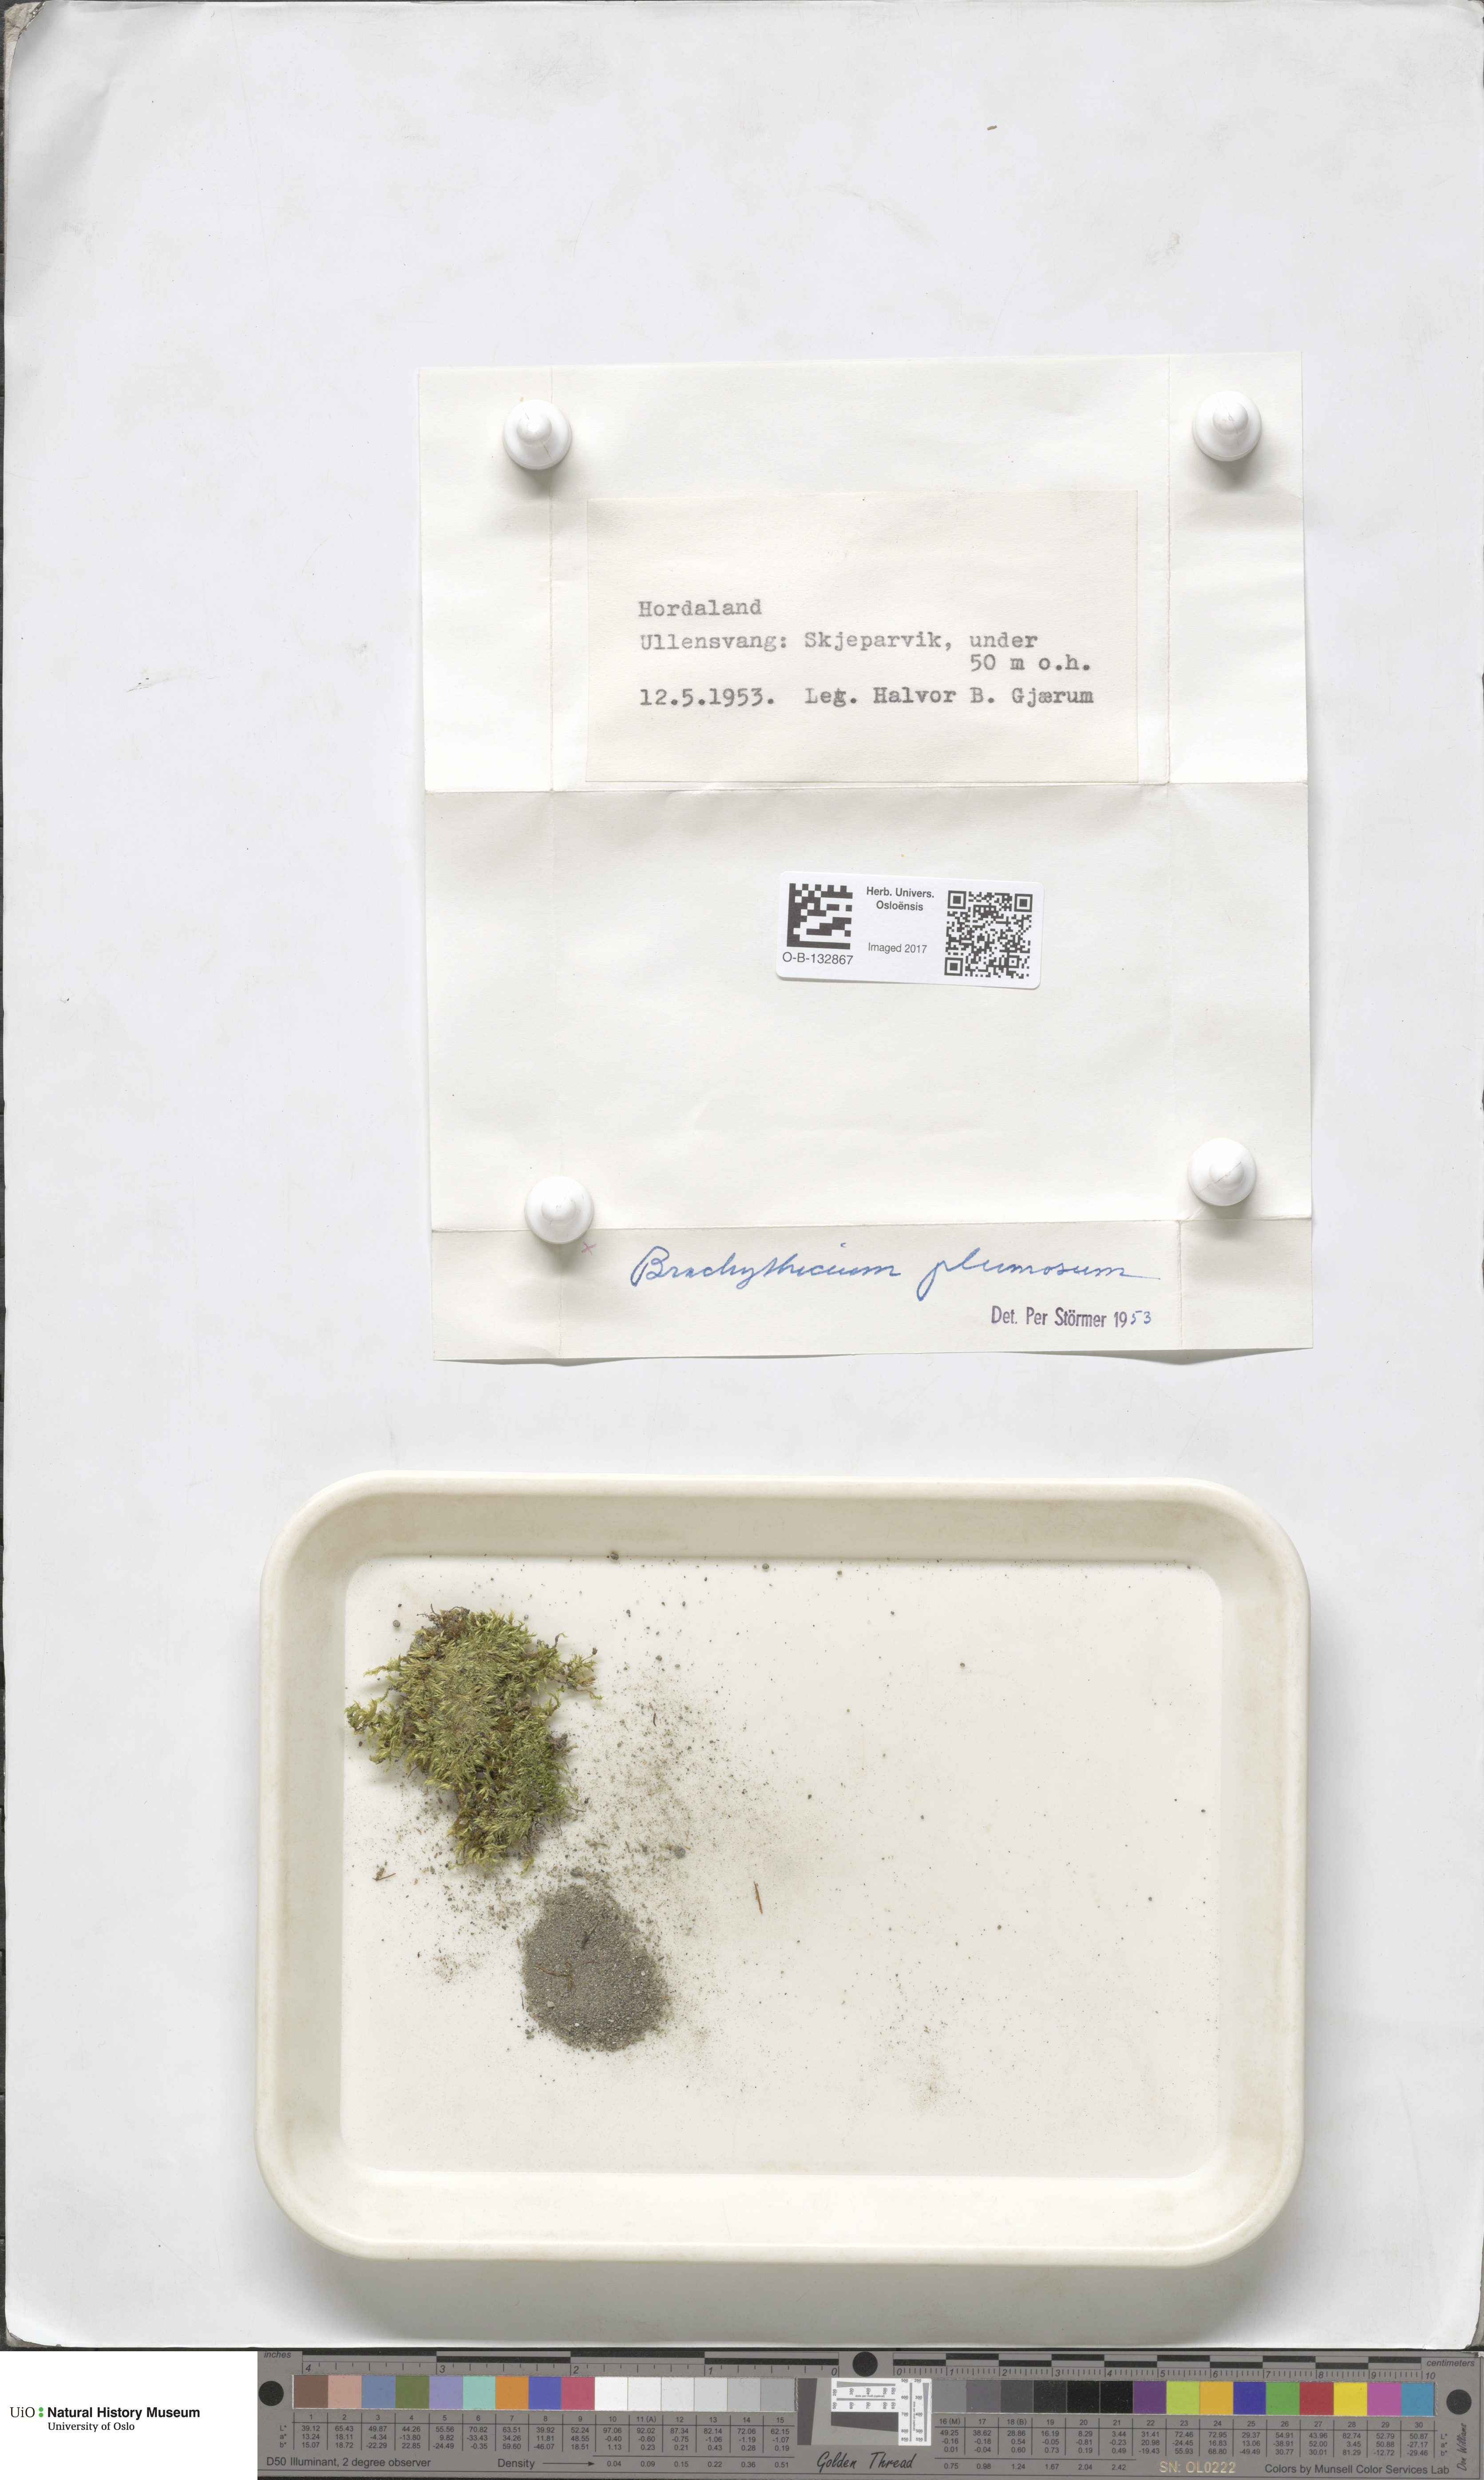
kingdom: Plantae
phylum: Bryophyta
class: Bryopsida
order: Hypnales
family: Brachytheciaceae
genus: Sciuro-hypnum
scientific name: Sciuro-hypnum plumosum
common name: Rusty feather-moss
